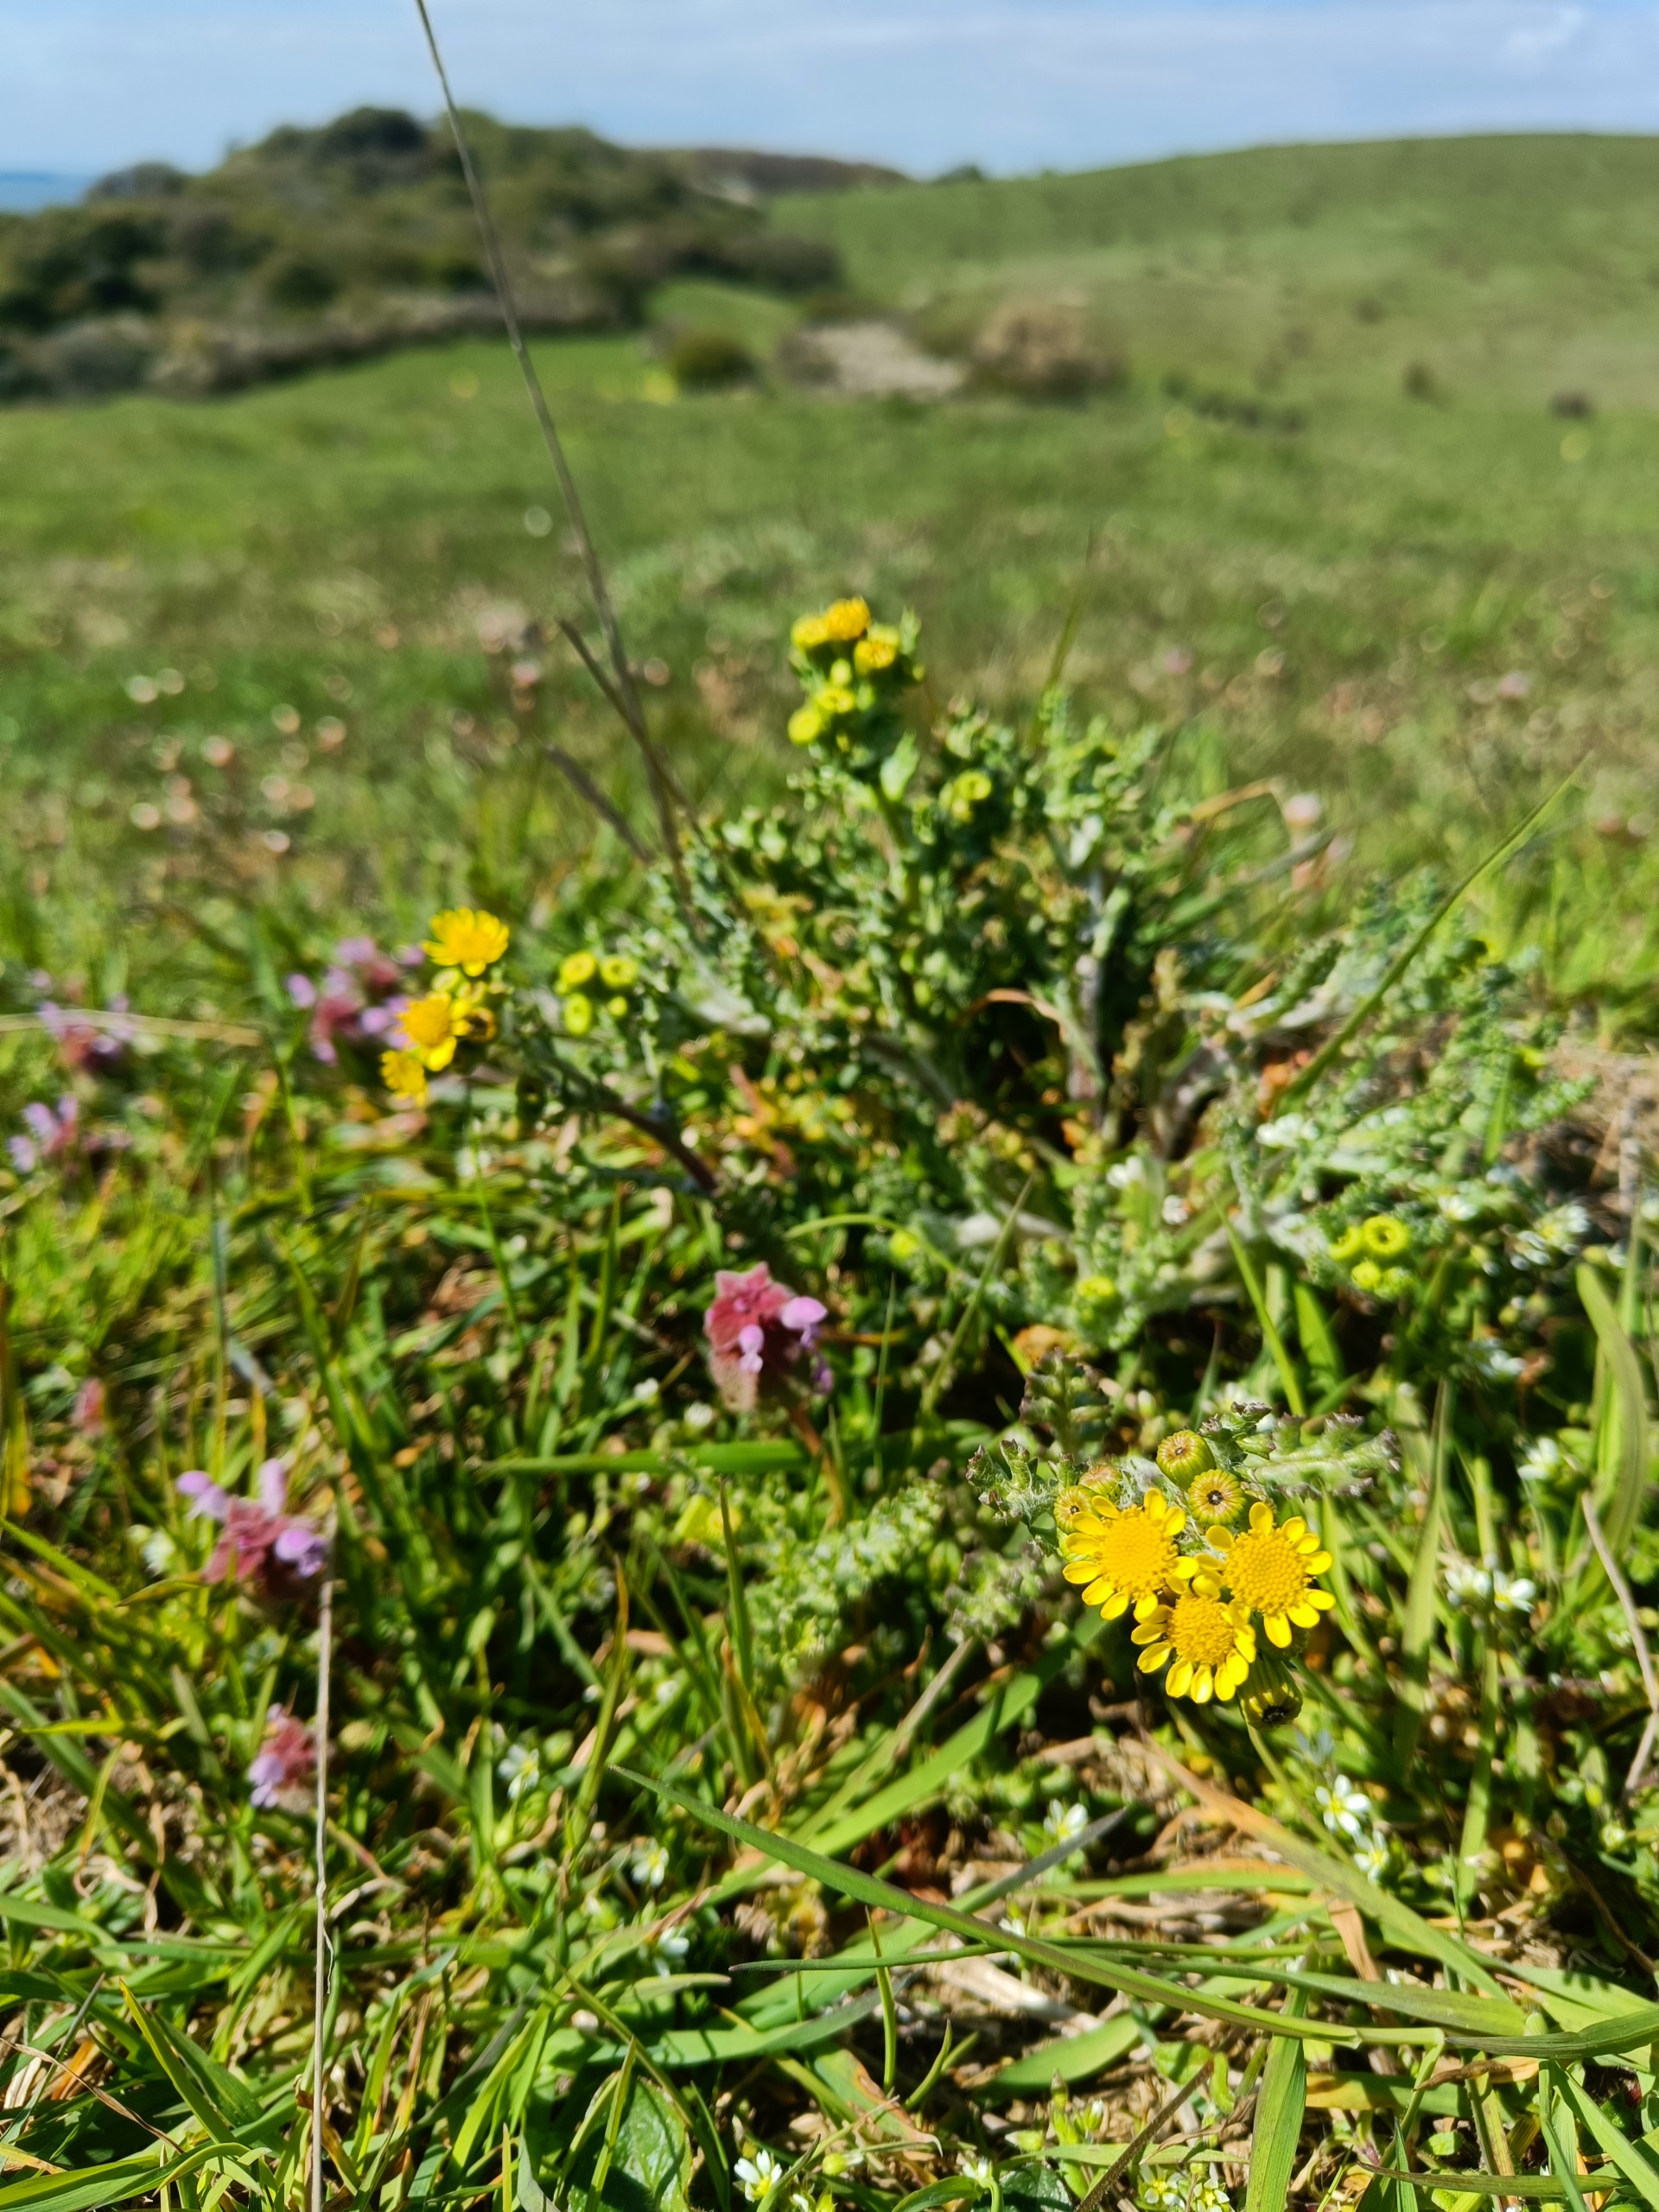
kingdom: Plantae
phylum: Tracheophyta
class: Magnoliopsida
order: Asterales
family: Asteraceae
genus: Senecio
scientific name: Senecio leucanthemifolius
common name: Vår-brandbæger
